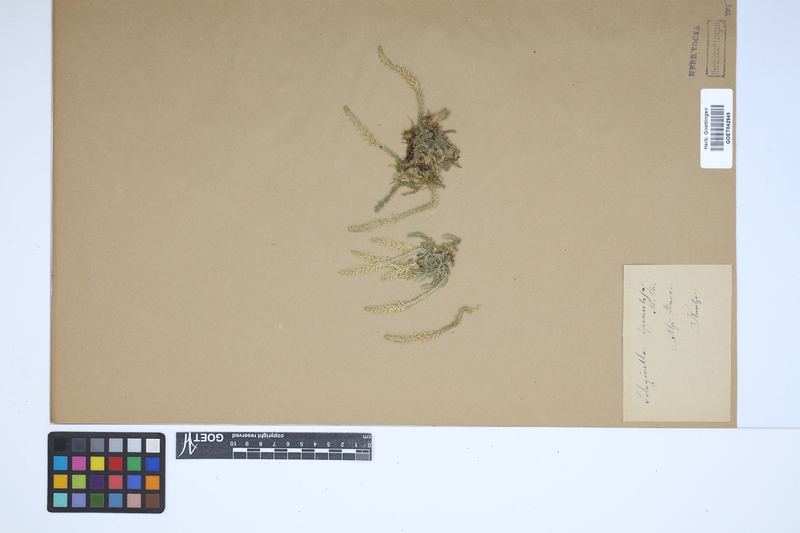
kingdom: Plantae
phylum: Tracheophyta
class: Lycopodiopsida
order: Selaginellales
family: Selaginellaceae
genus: Selaginella
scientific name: Selaginella selaginoides
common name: Prickly mountain-moss
